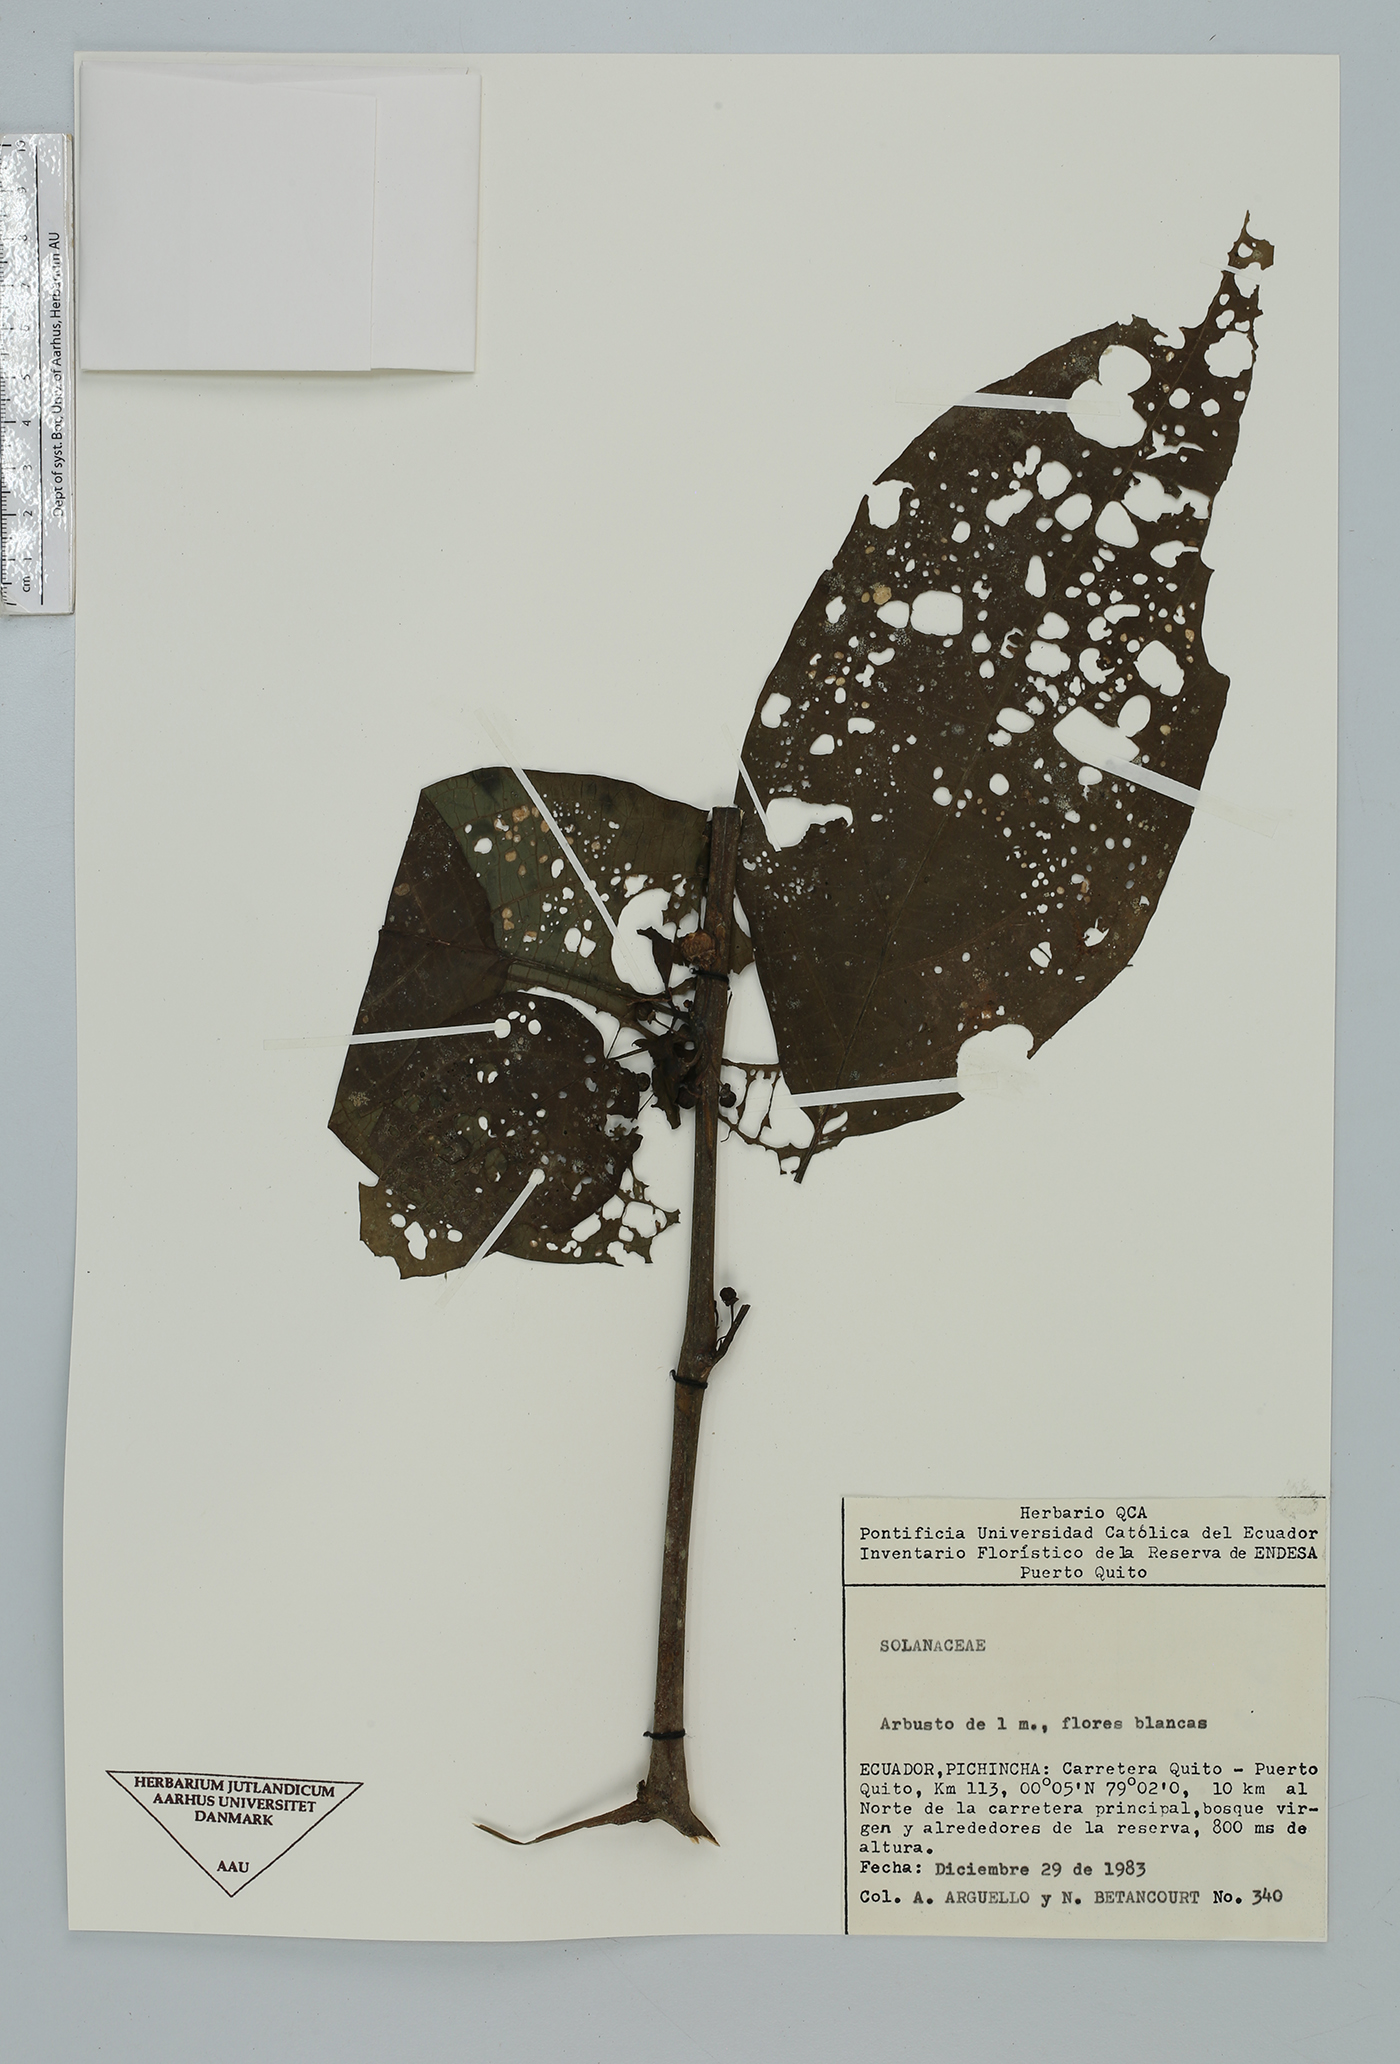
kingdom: Plantae
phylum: Tracheophyta
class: Magnoliopsida
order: Solanales
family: Solanaceae
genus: Witheringia
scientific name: Witheringia
